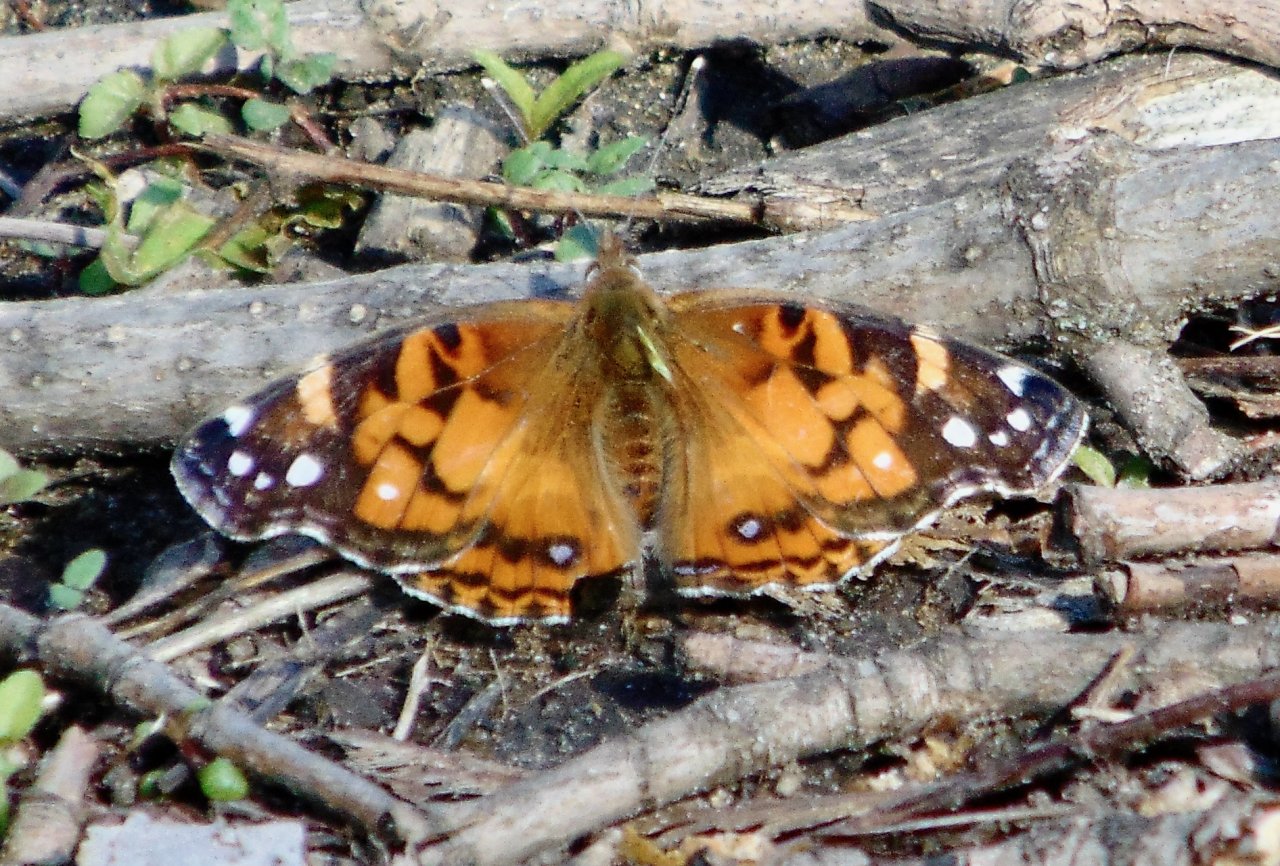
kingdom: Animalia
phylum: Arthropoda
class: Insecta
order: Lepidoptera
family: Nymphalidae
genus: Vanessa
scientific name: Vanessa virginiensis
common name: American Lady
